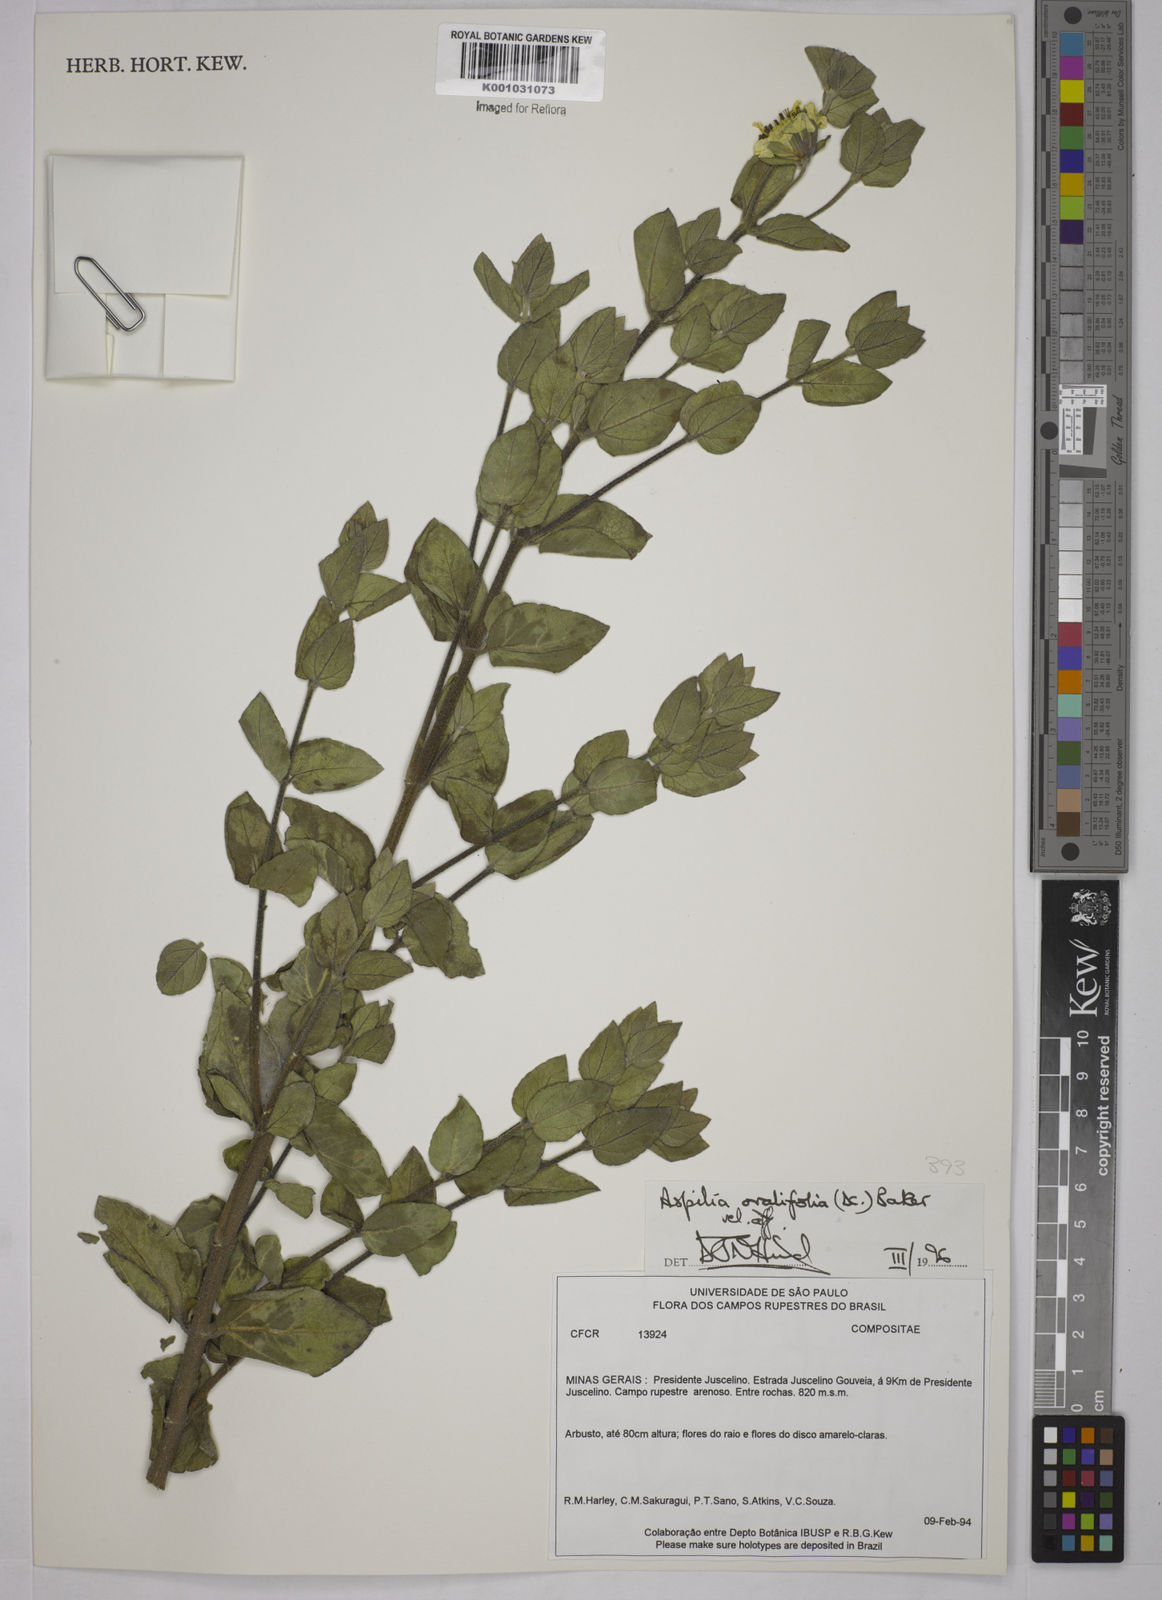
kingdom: Plantae
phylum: Tracheophyta
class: Magnoliopsida
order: Asterales
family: Asteraceae
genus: Wedelia
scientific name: Wedelia ovalifolia
